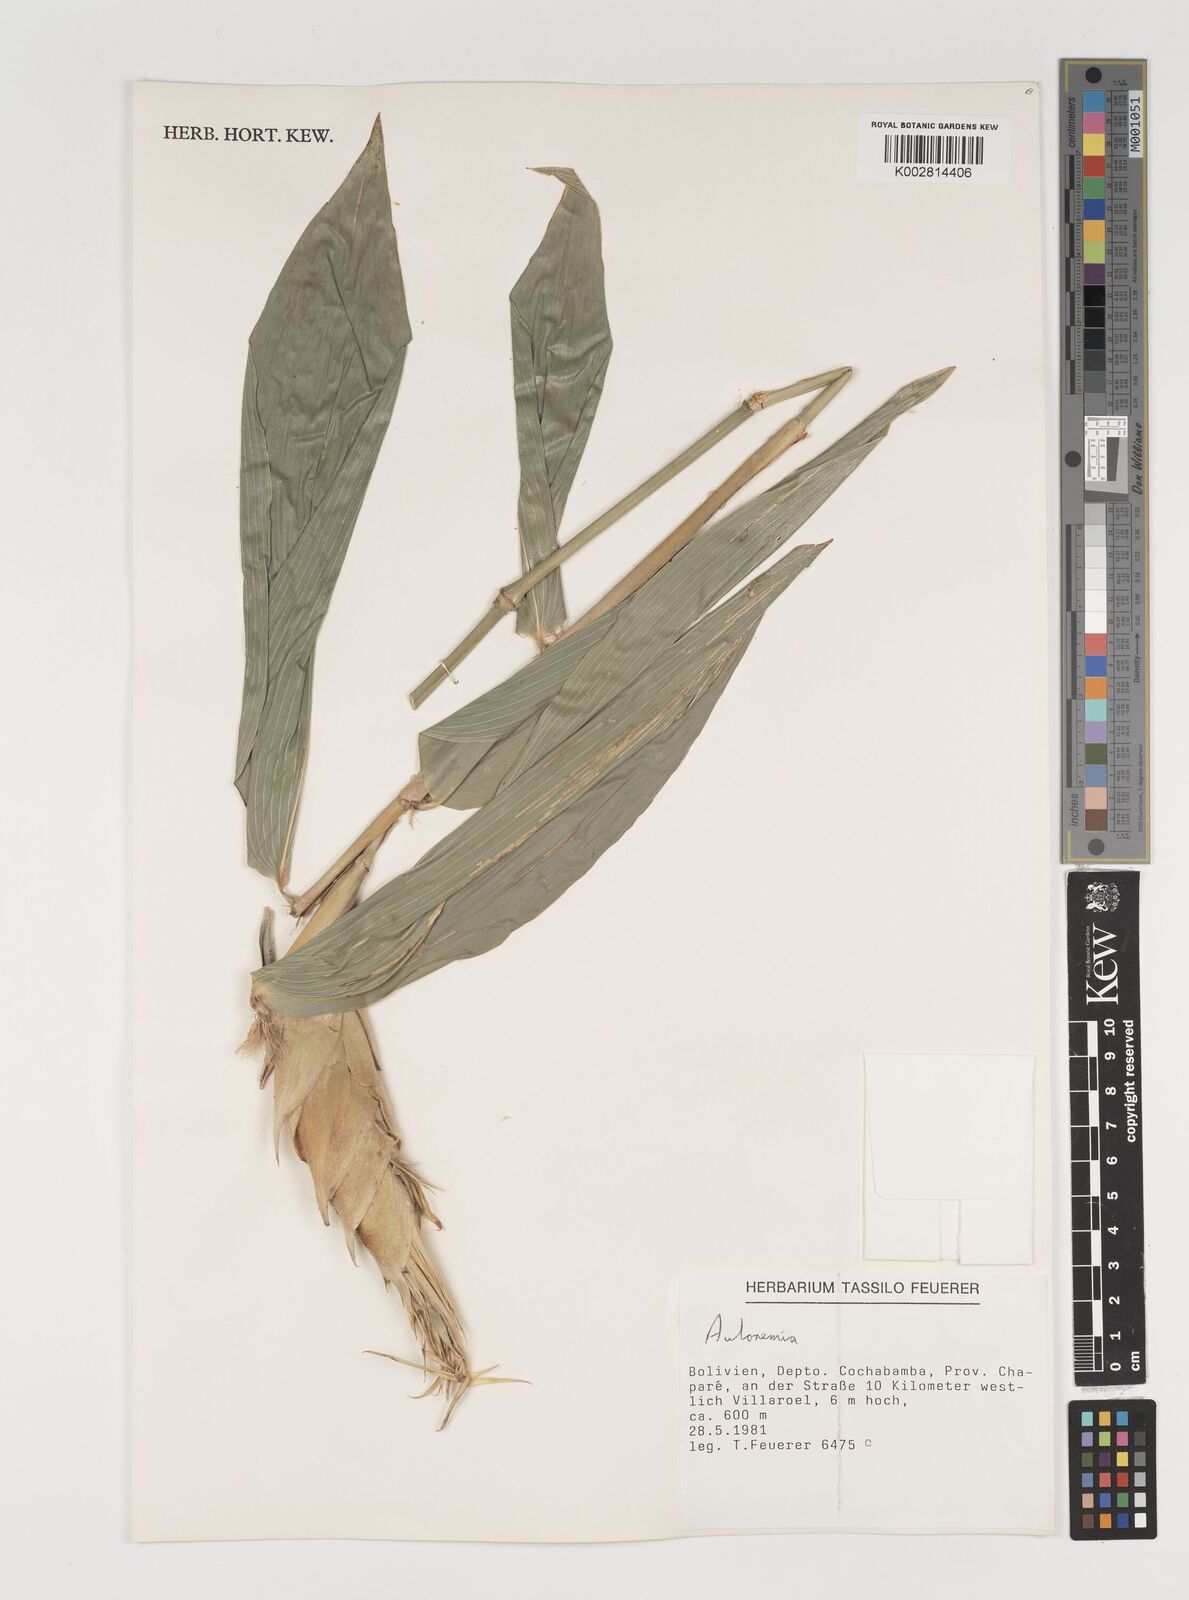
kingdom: Plantae
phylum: Tracheophyta
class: Liliopsida
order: Poales
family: Poaceae
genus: Aulonemia
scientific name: Aulonemia
